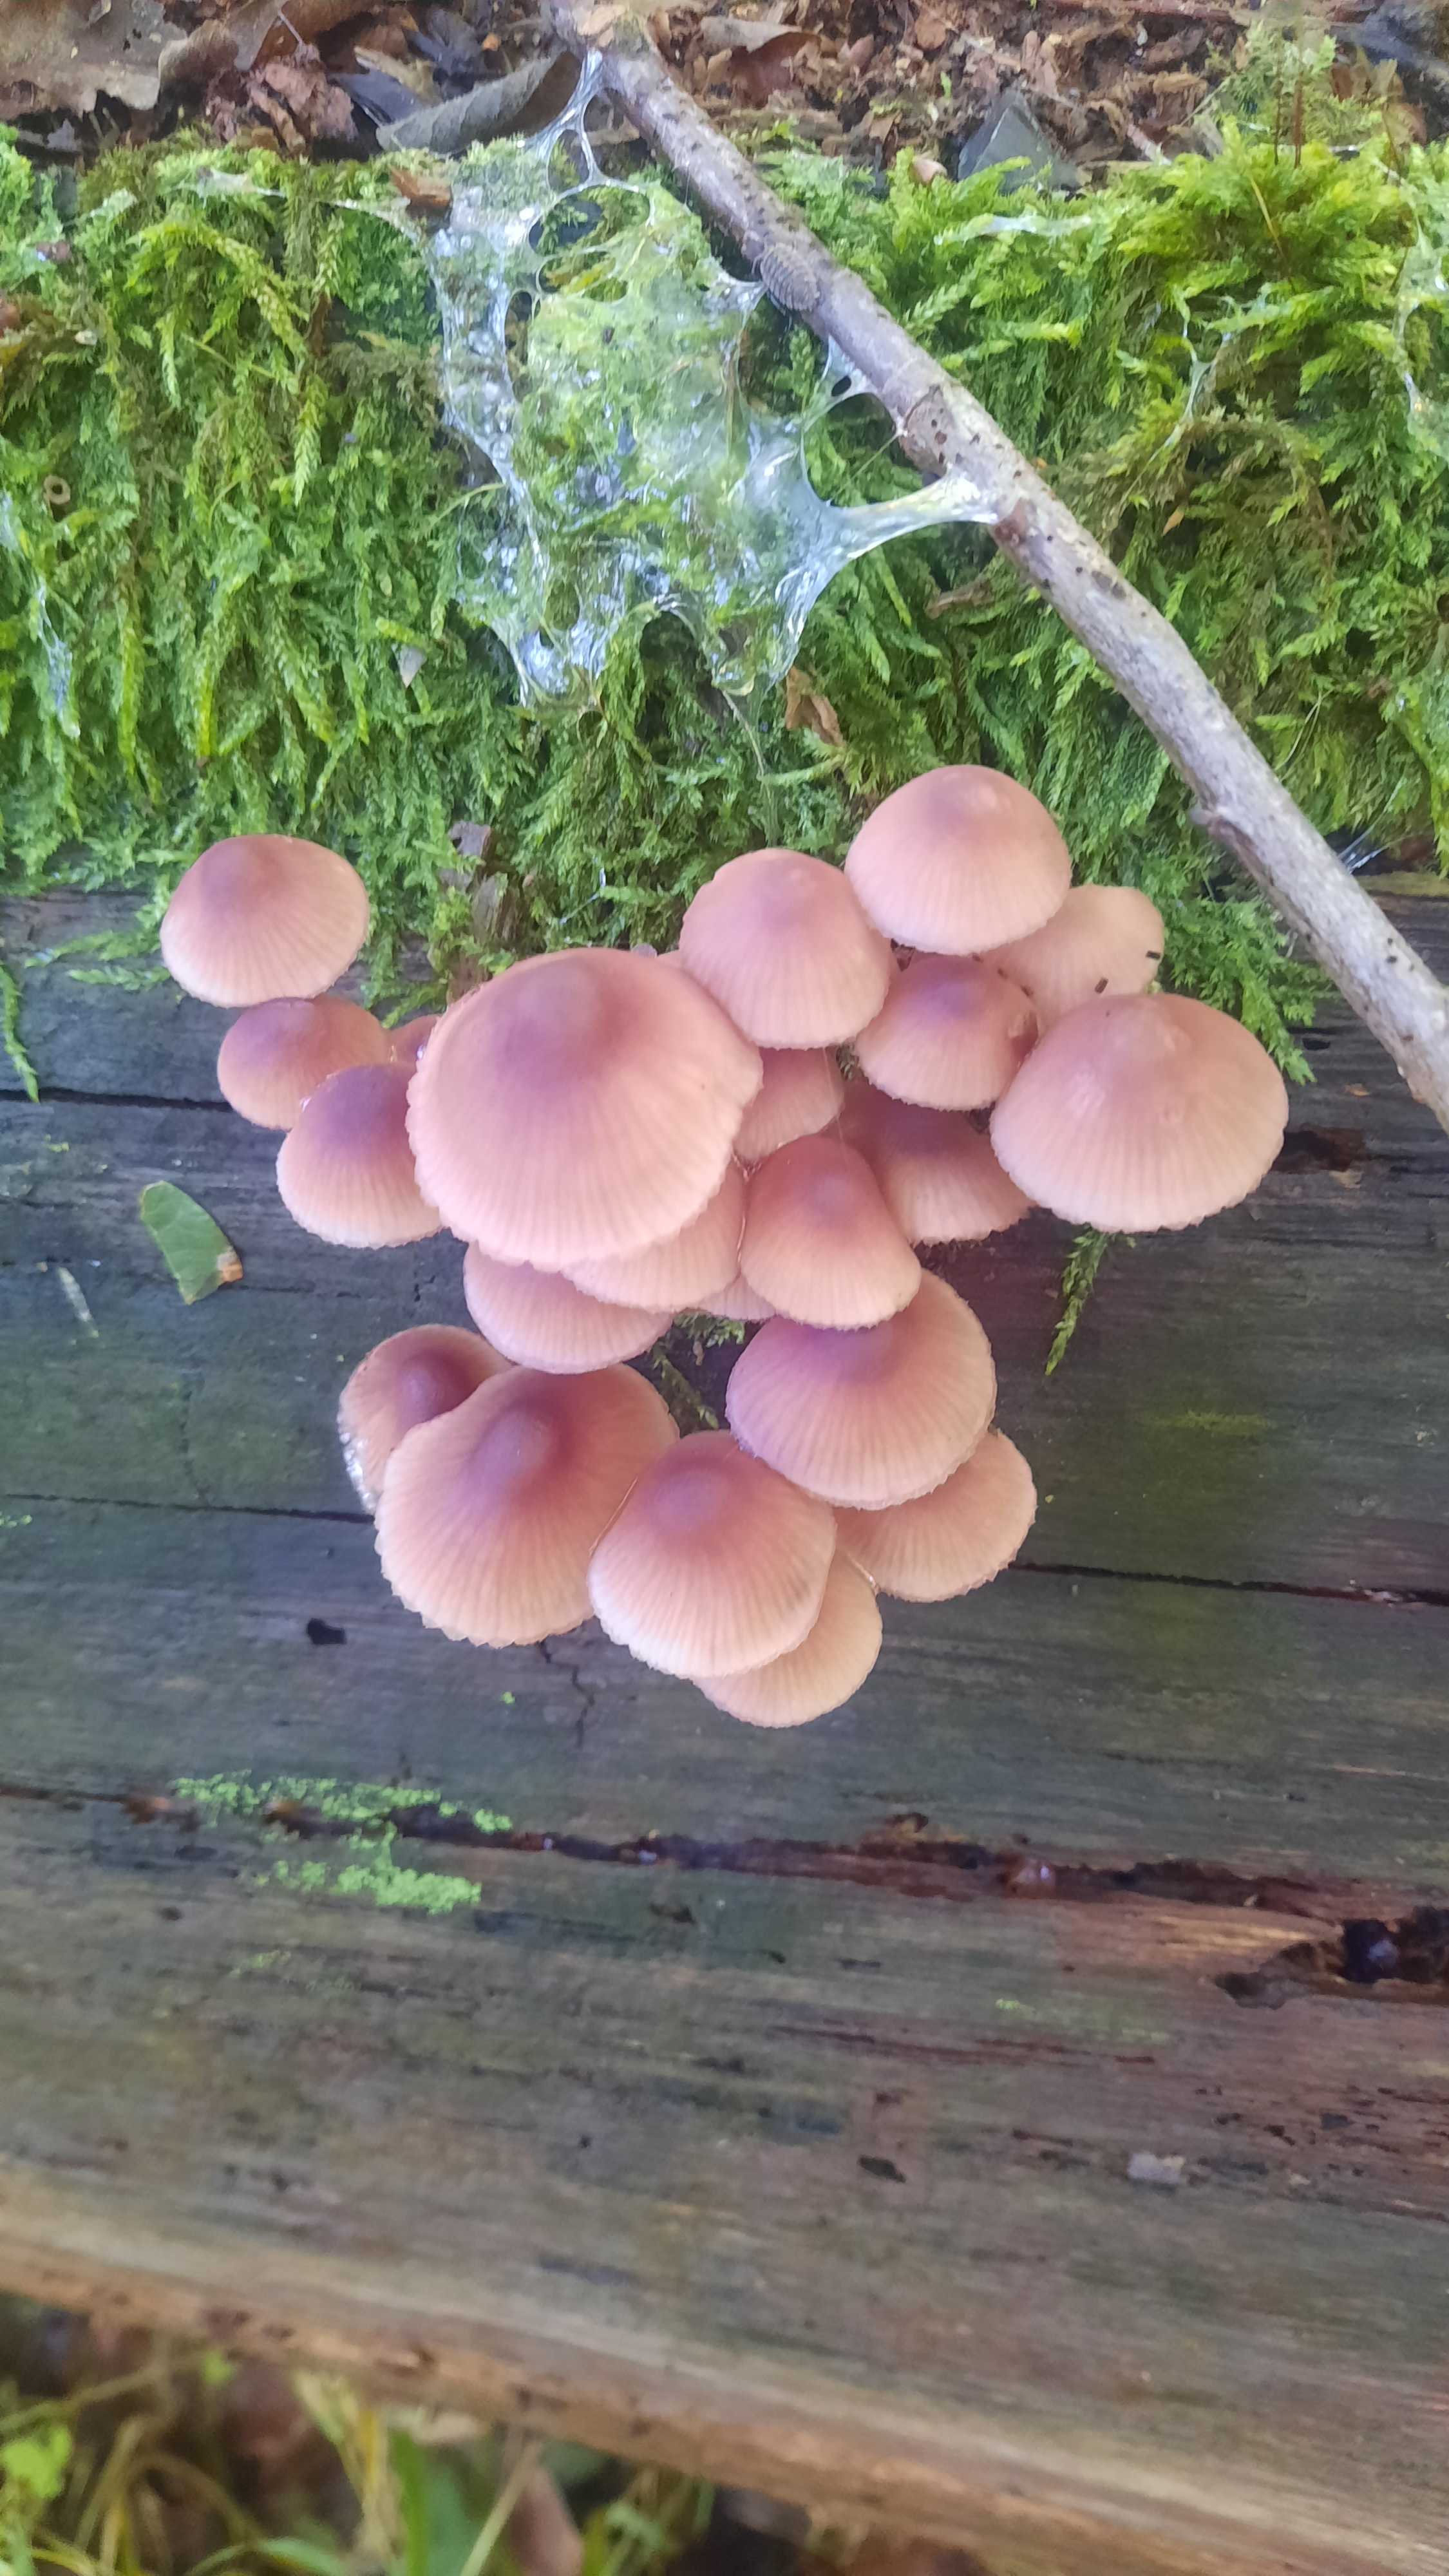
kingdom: Fungi
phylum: Basidiomycota
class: Agaricomycetes
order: Agaricales
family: Mycenaceae
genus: Mycena
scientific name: Mycena haematopus
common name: blødende huesvamp
